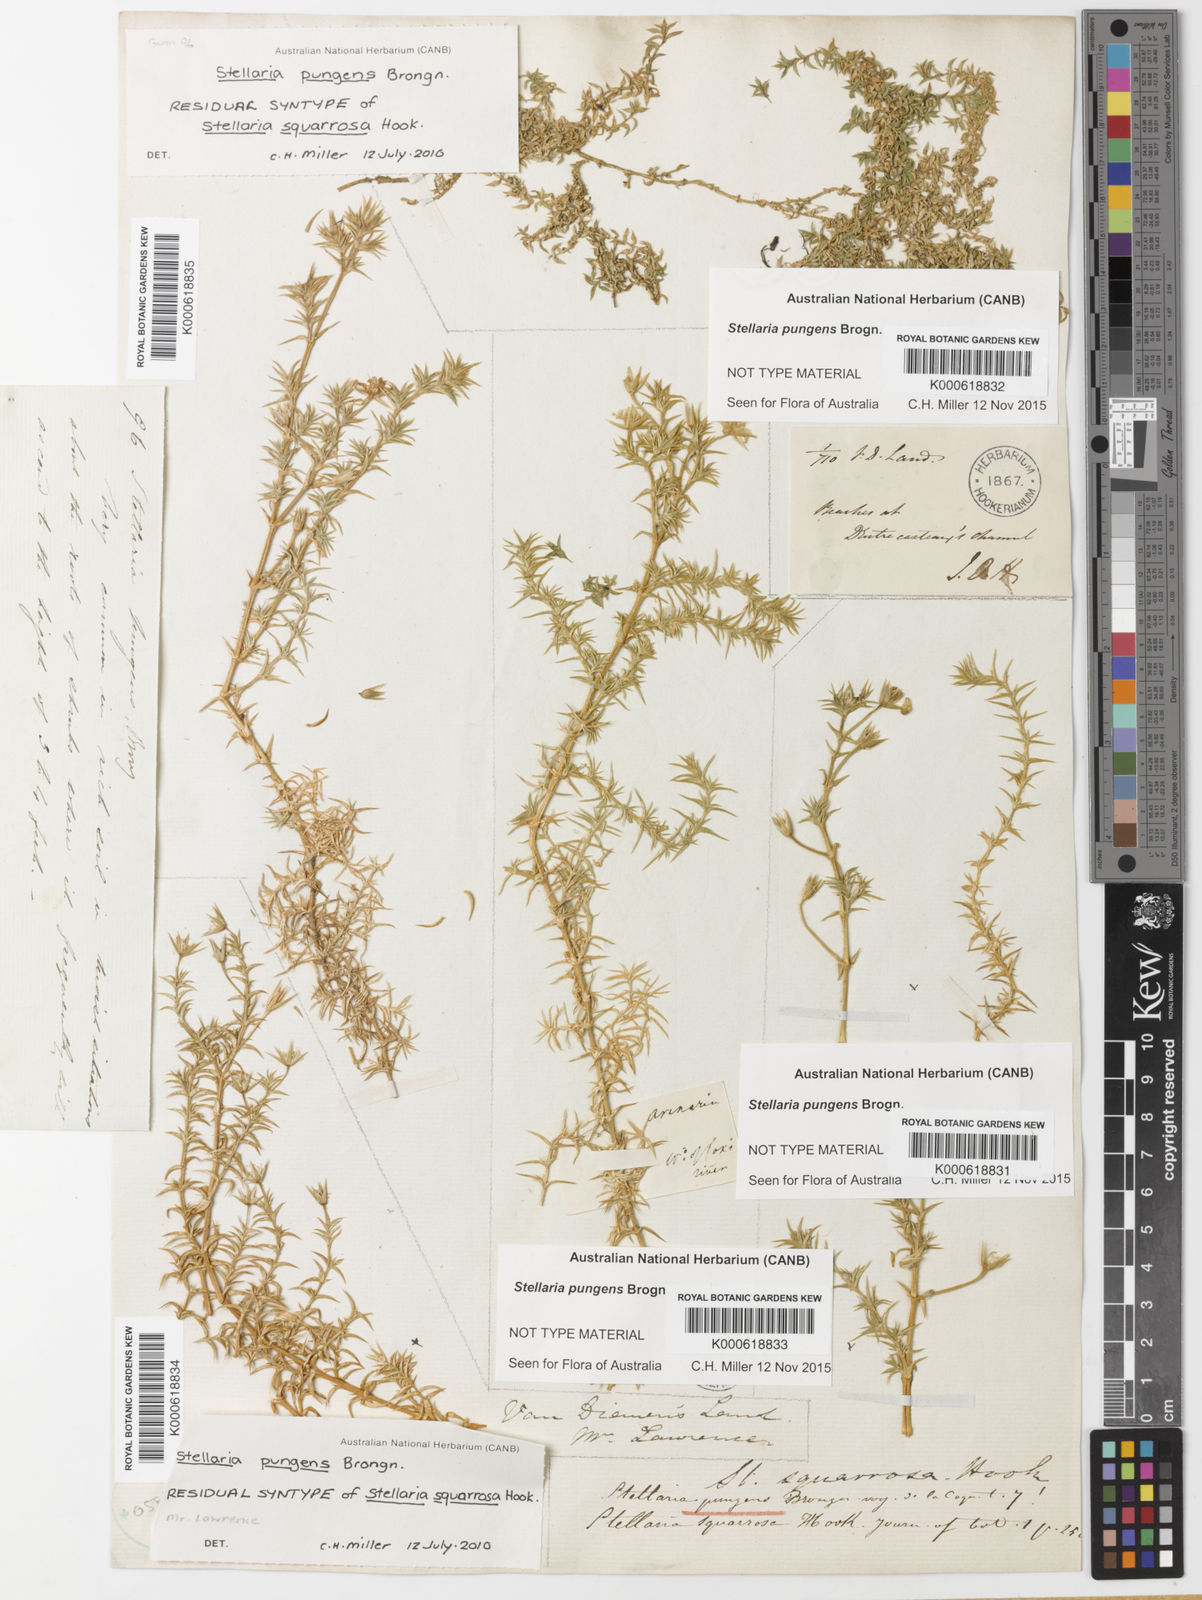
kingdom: Plantae
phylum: Tracheophyta
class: Magnoliopsida
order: Caryophyllales
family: Caryophyllaceae
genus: Stellaria
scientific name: Stellaria pungens
